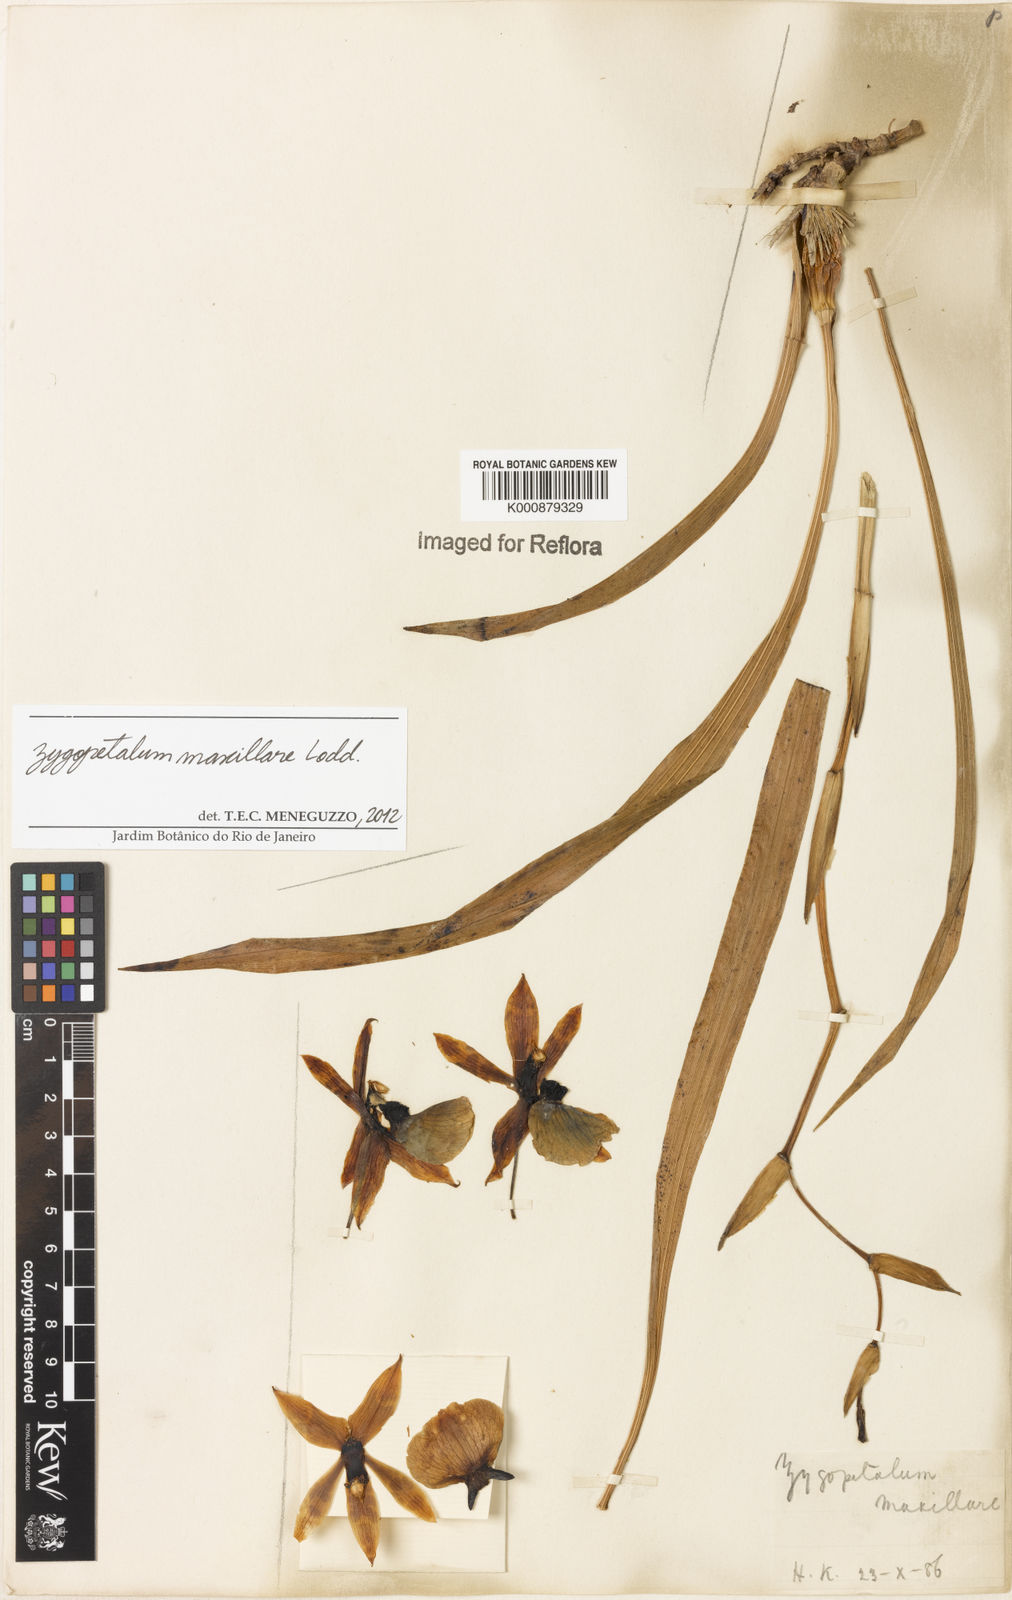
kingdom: Plantae
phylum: Tracheophyta
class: Liliopsida
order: Asparagales
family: Orchidaceae
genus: Zygopetalum
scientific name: Zygopetalum maxillare
